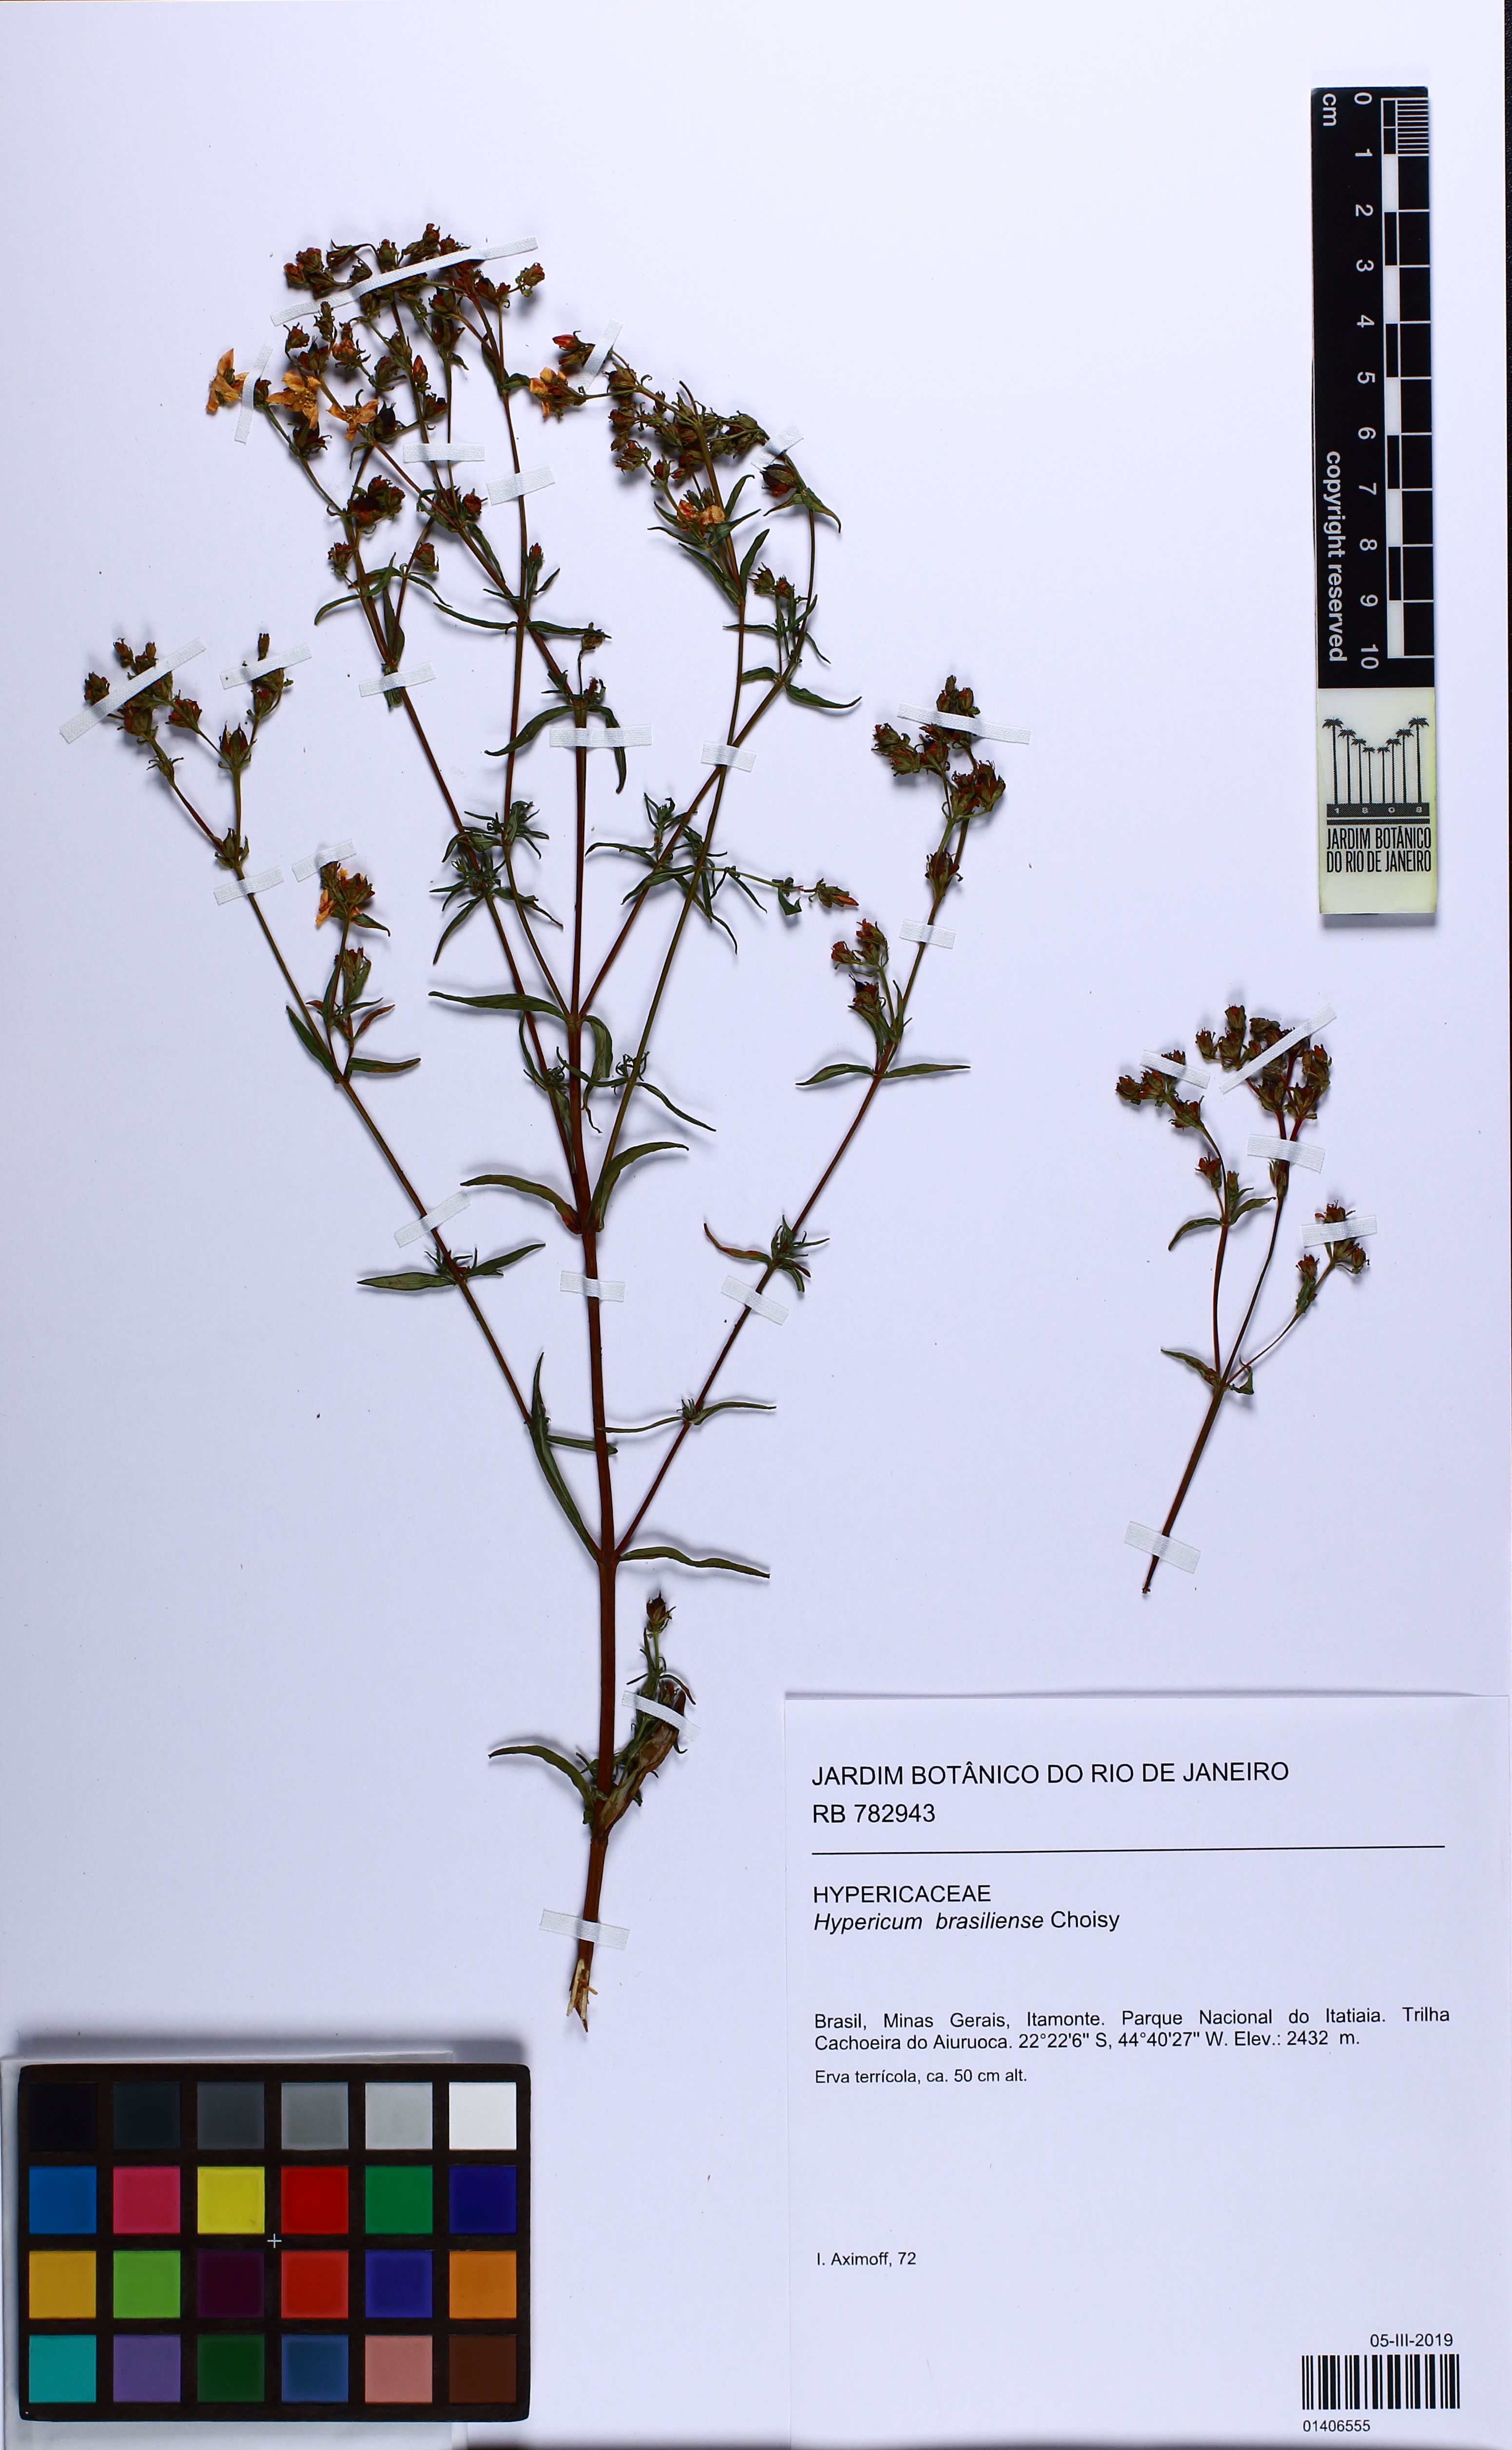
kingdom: Plantae
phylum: Tracheophyta
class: Magnoliopsida
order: Malpighiales
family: Hypericaceae
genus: Hypericum
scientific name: Hypericum brasiliense
